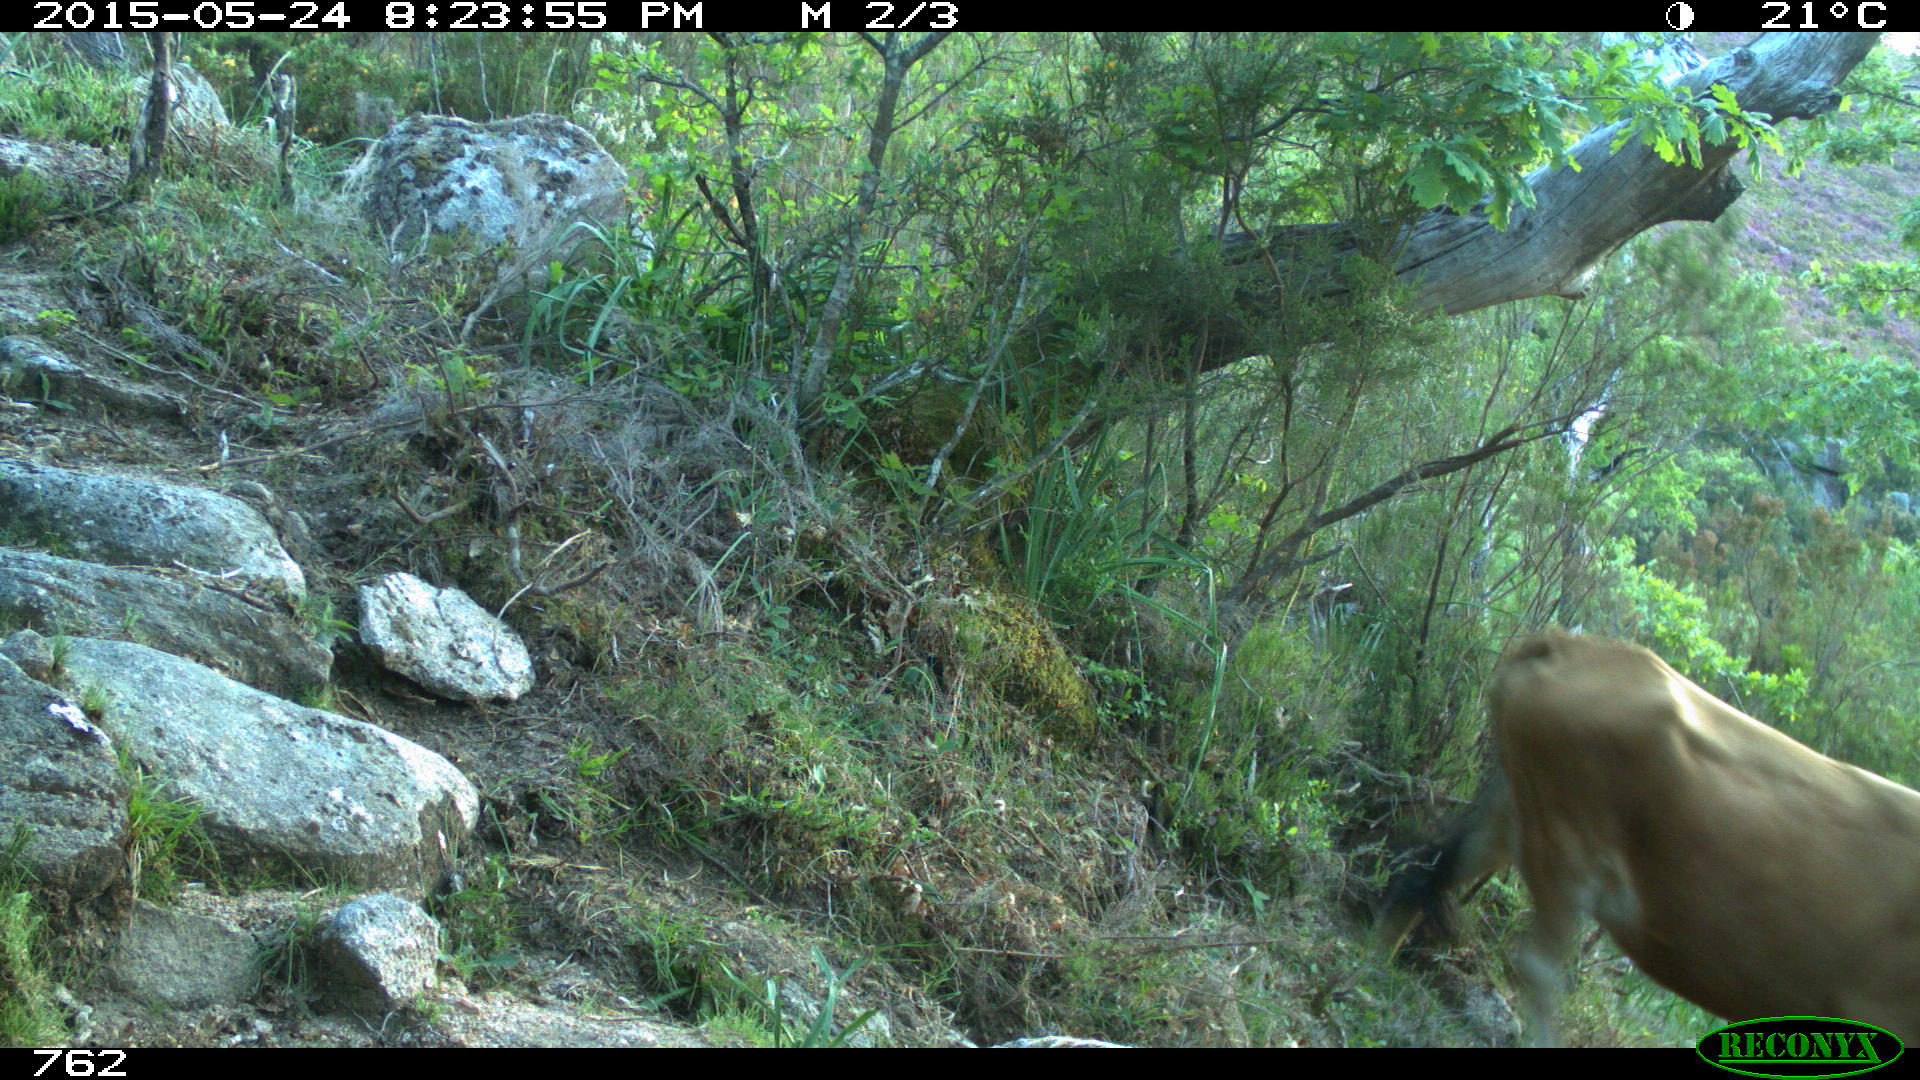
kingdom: Animalia
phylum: Chordata
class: Mammalia
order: Artiodactyla
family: Bovidae
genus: Bos
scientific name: Bos taurus
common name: Domesticated cattle
